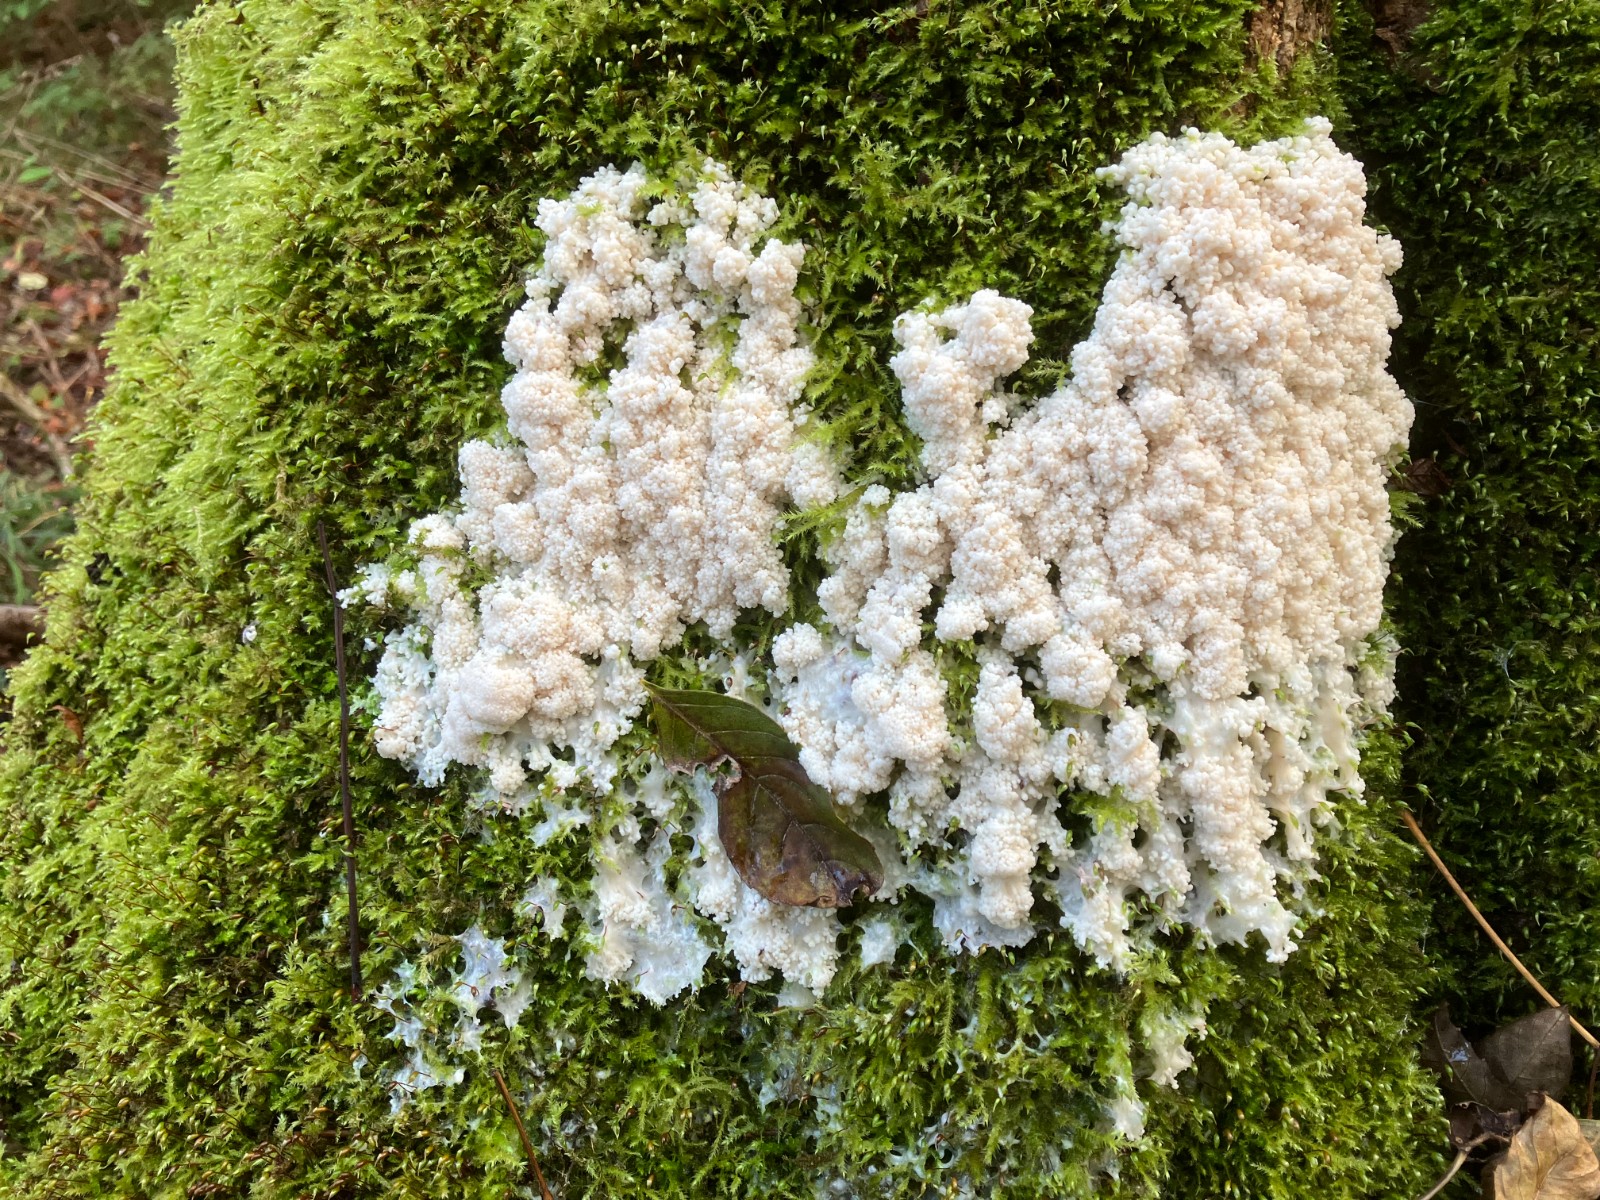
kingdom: Protozoa
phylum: Mycetozoa
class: Myxomycetes
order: Stemonitidales
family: Stemonitidaceae
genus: Brefeldia
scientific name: Brefeldia maxima
